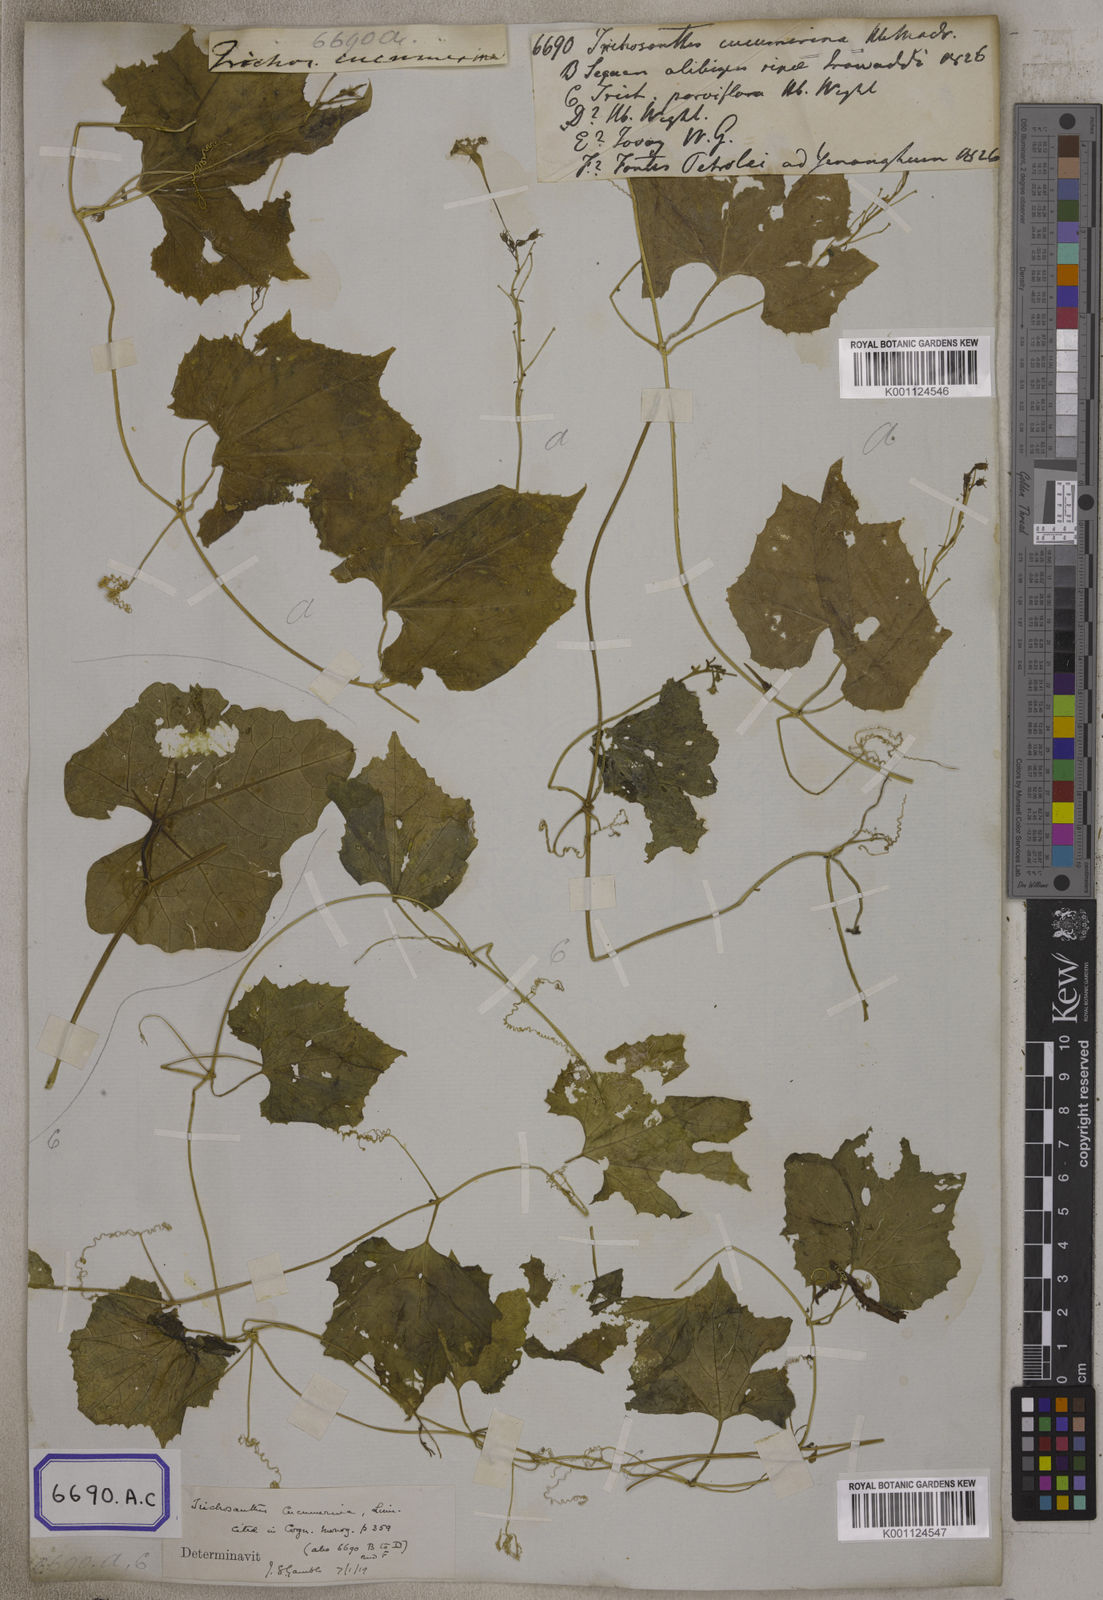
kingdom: Plantae
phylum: Tracheophyta
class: Magnoliopsida
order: Cucurbitales
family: Cucurbitaceae
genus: Trichosanthes
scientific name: Trichosanthes
